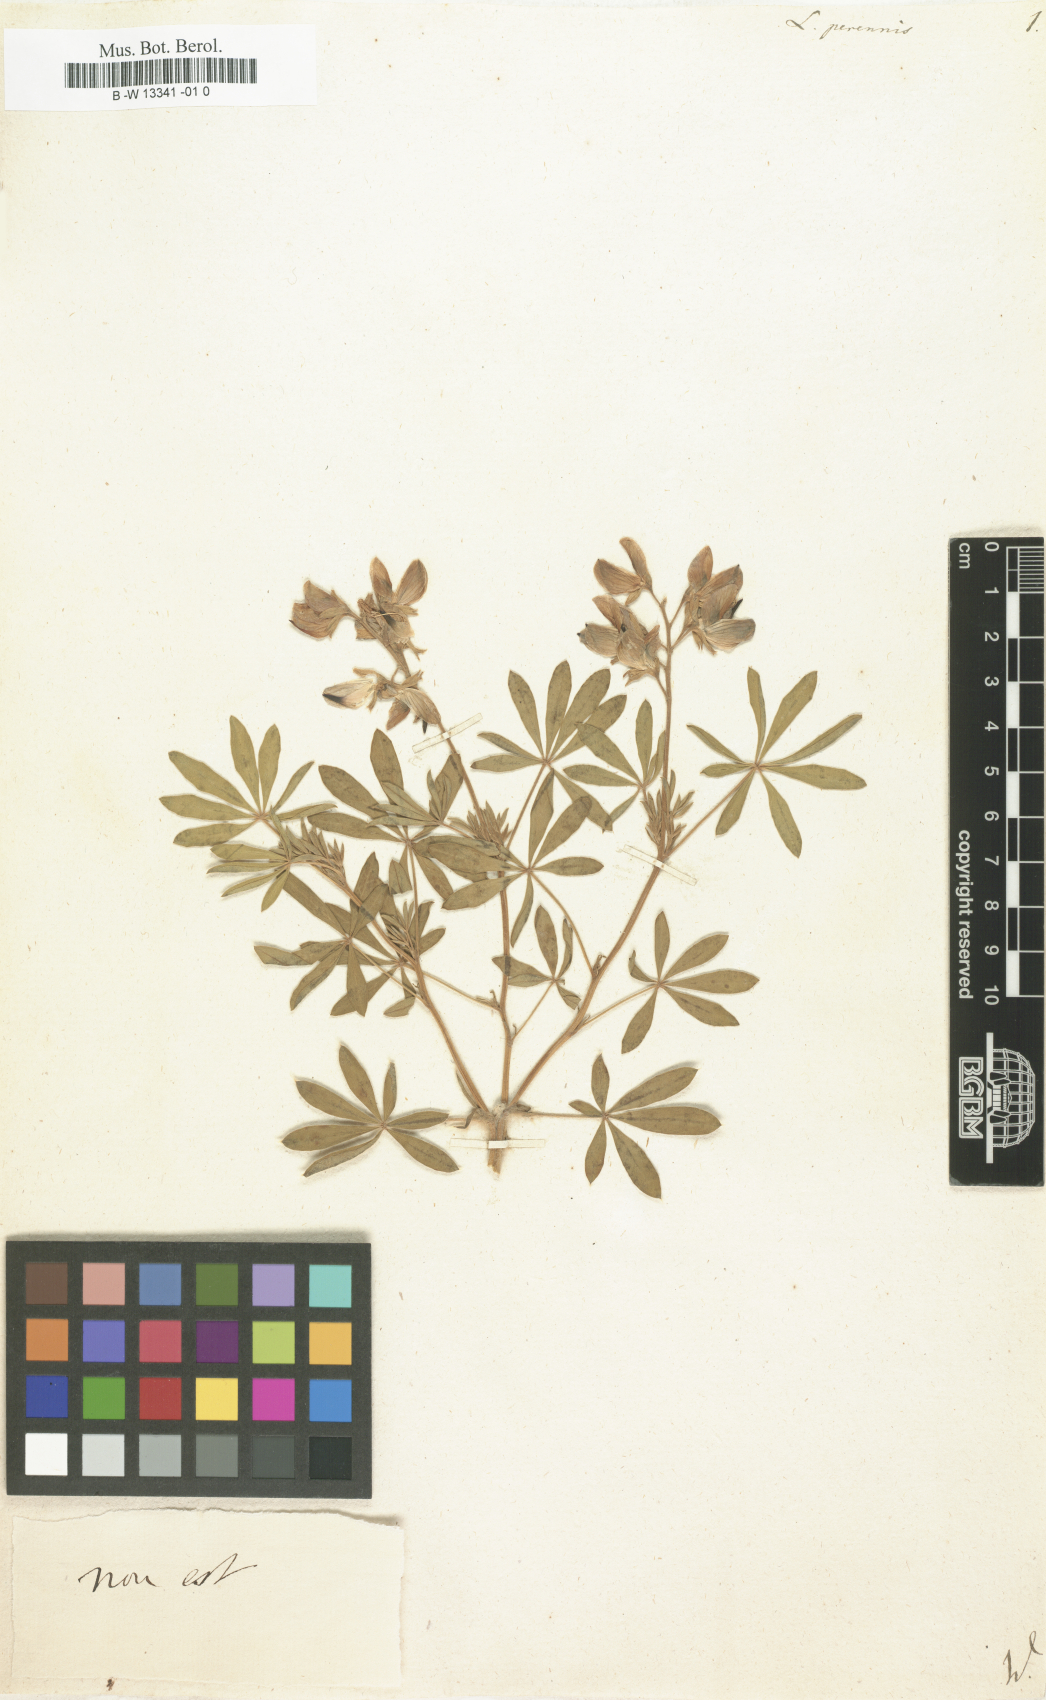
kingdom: Plantae
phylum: Tracheophyta
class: Magnoliopsida
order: Fabales
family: Fabaceae
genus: Lupinus
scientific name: Lupinus perennis
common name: Sundial lupine
